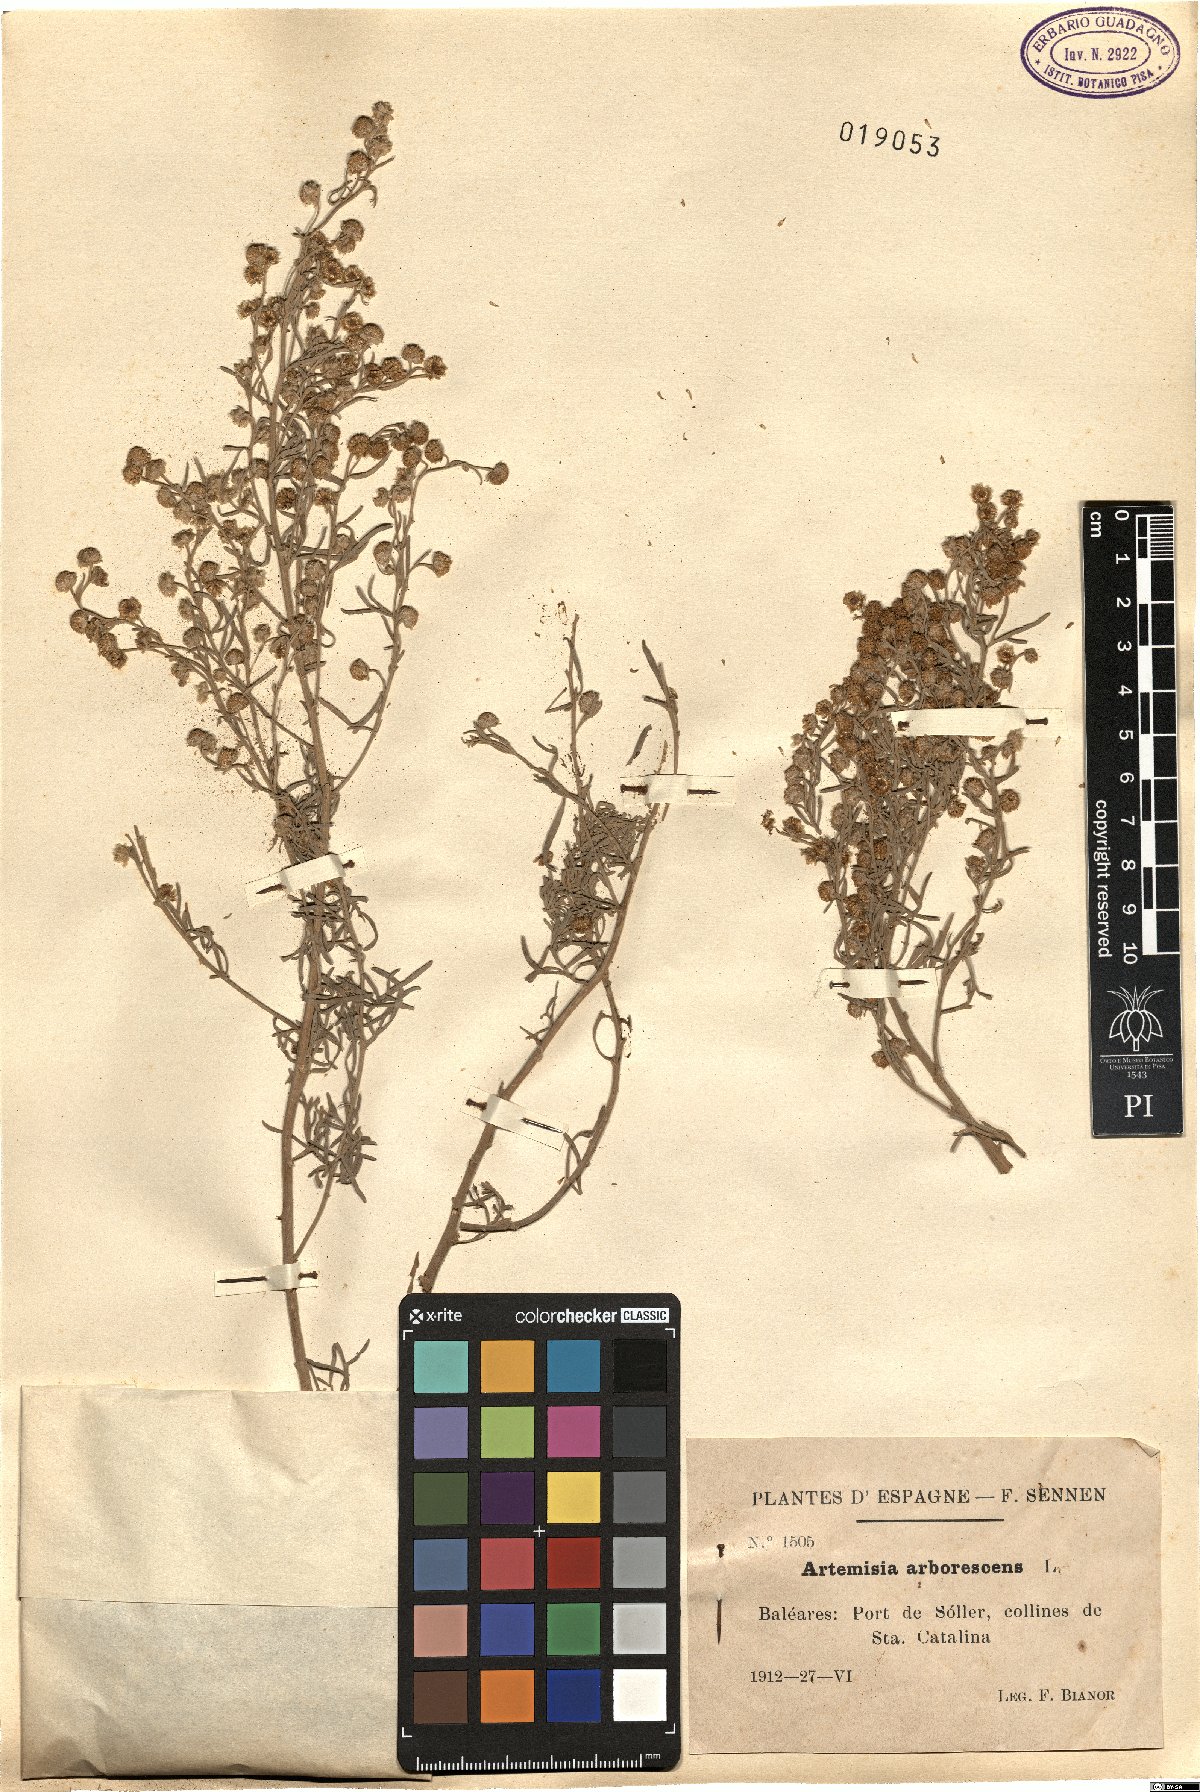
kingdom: Plantae
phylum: Tracheophyta
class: Magnoliopsida
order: Asterales
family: Asteraceae
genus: Artemisia
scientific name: Artemisia arborescens
